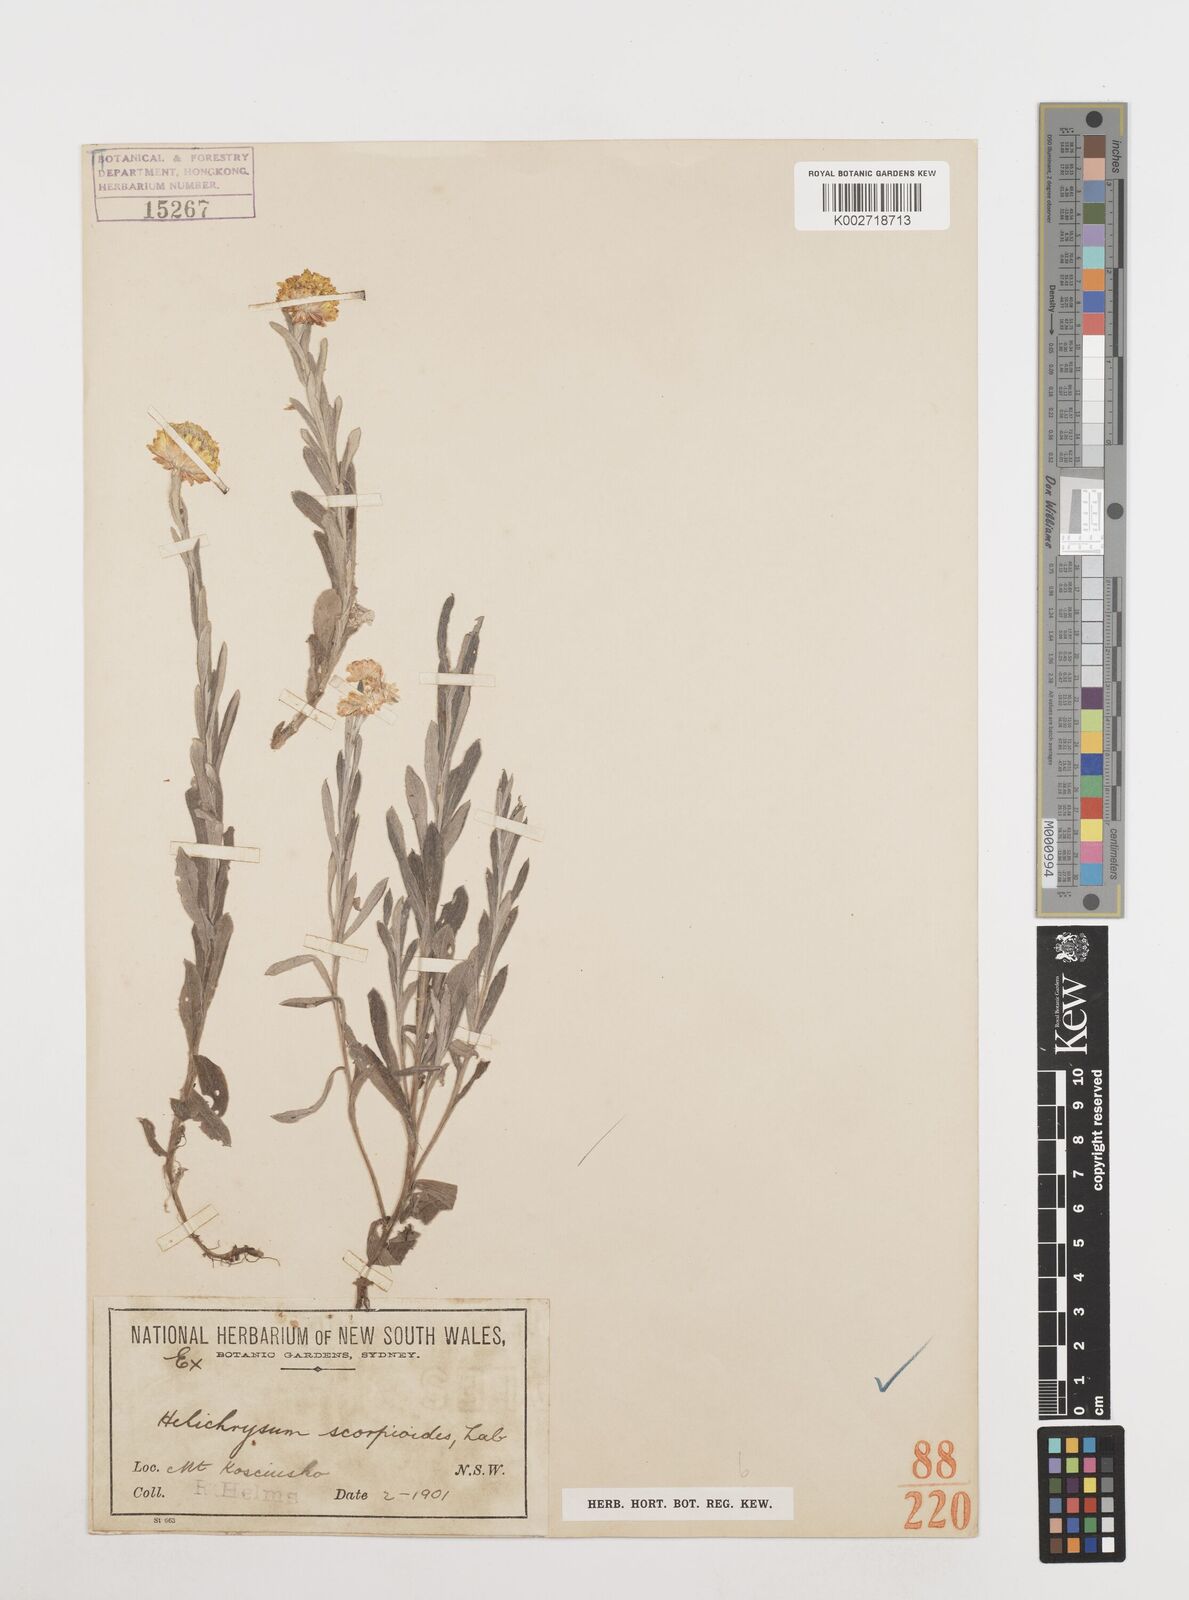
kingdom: Plantae
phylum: Tracheophyta
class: Magnoliopsida
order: Asterales
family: Asteraceae
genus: Coronidium
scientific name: Coronidium scorpioides
